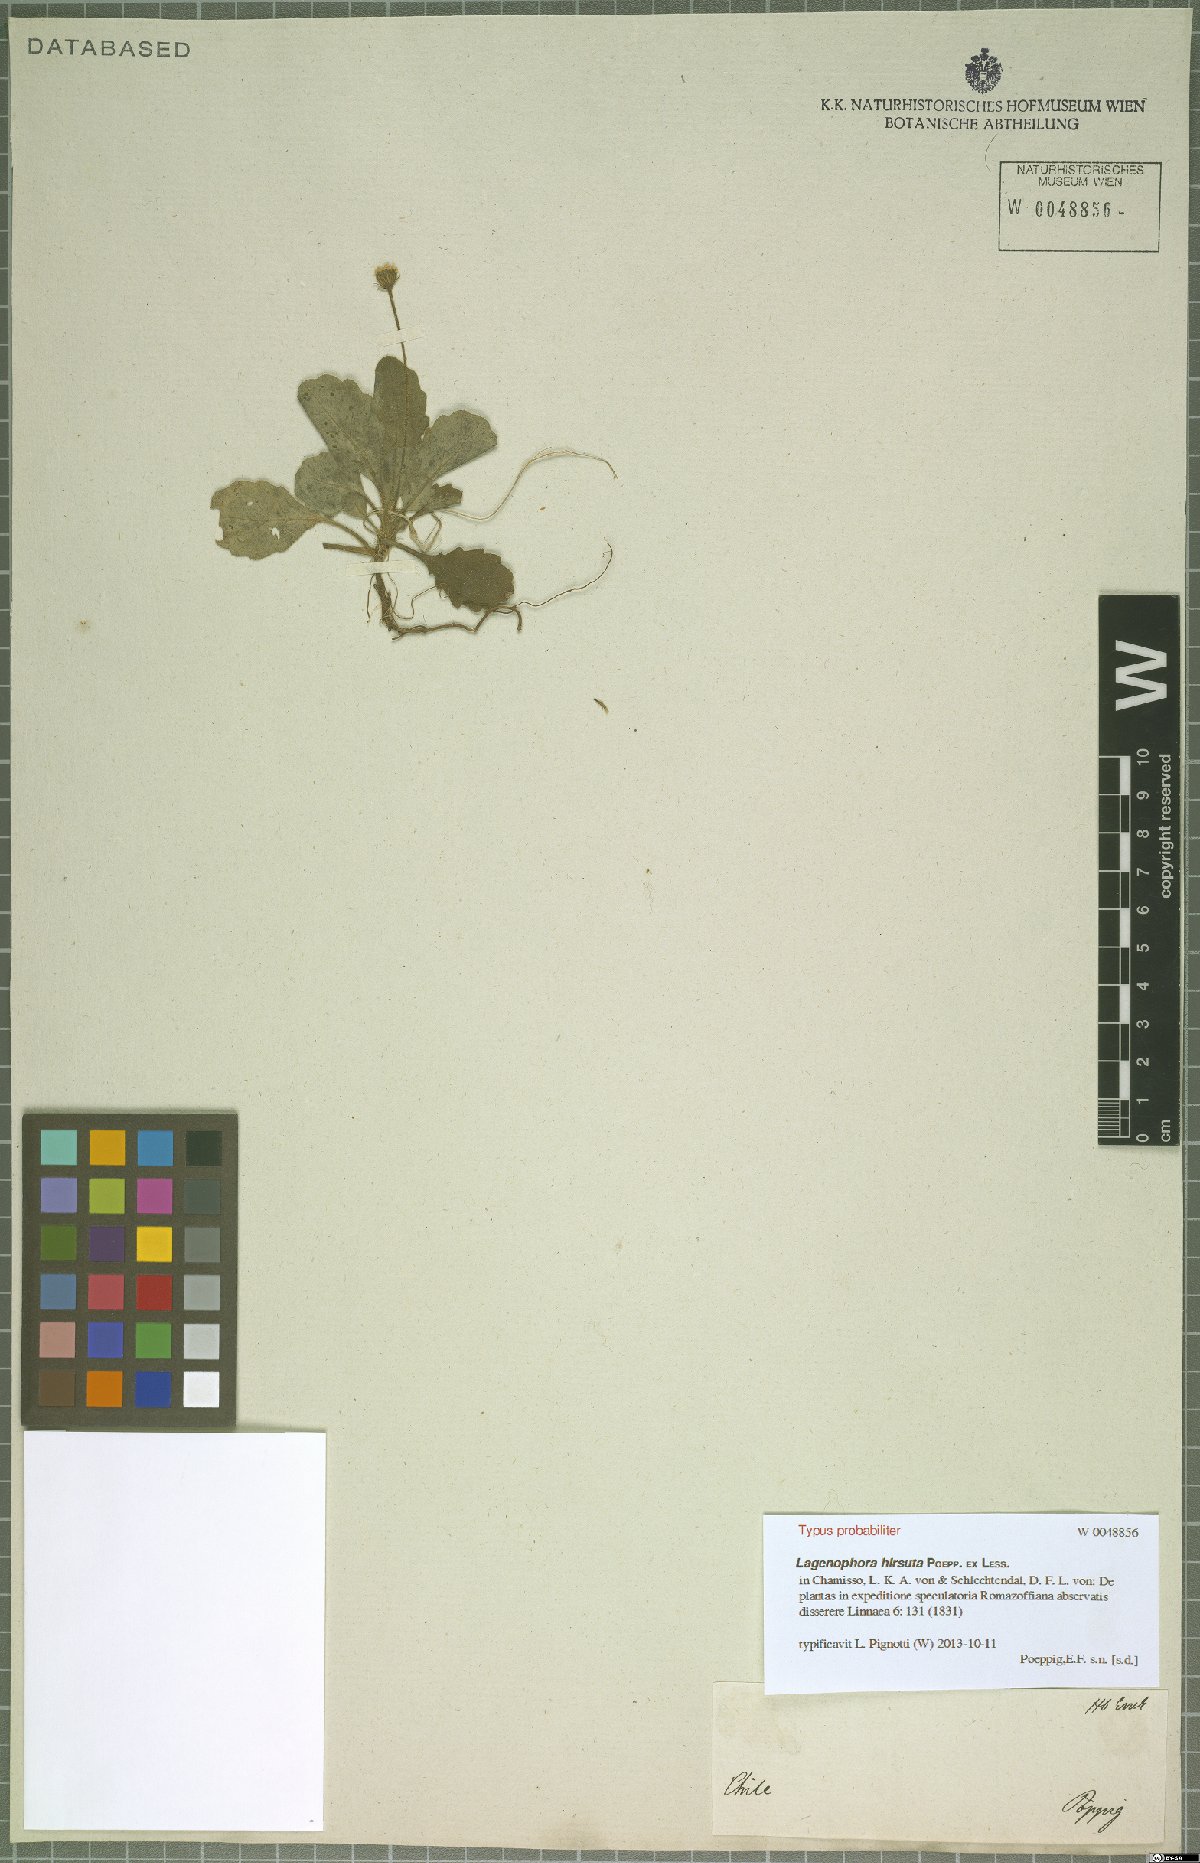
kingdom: Plantae
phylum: Tracheophyta
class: Magnoliopsida
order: Asterales
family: Asteraceae
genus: Lagenophora
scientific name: Lagenophora hirsuta
